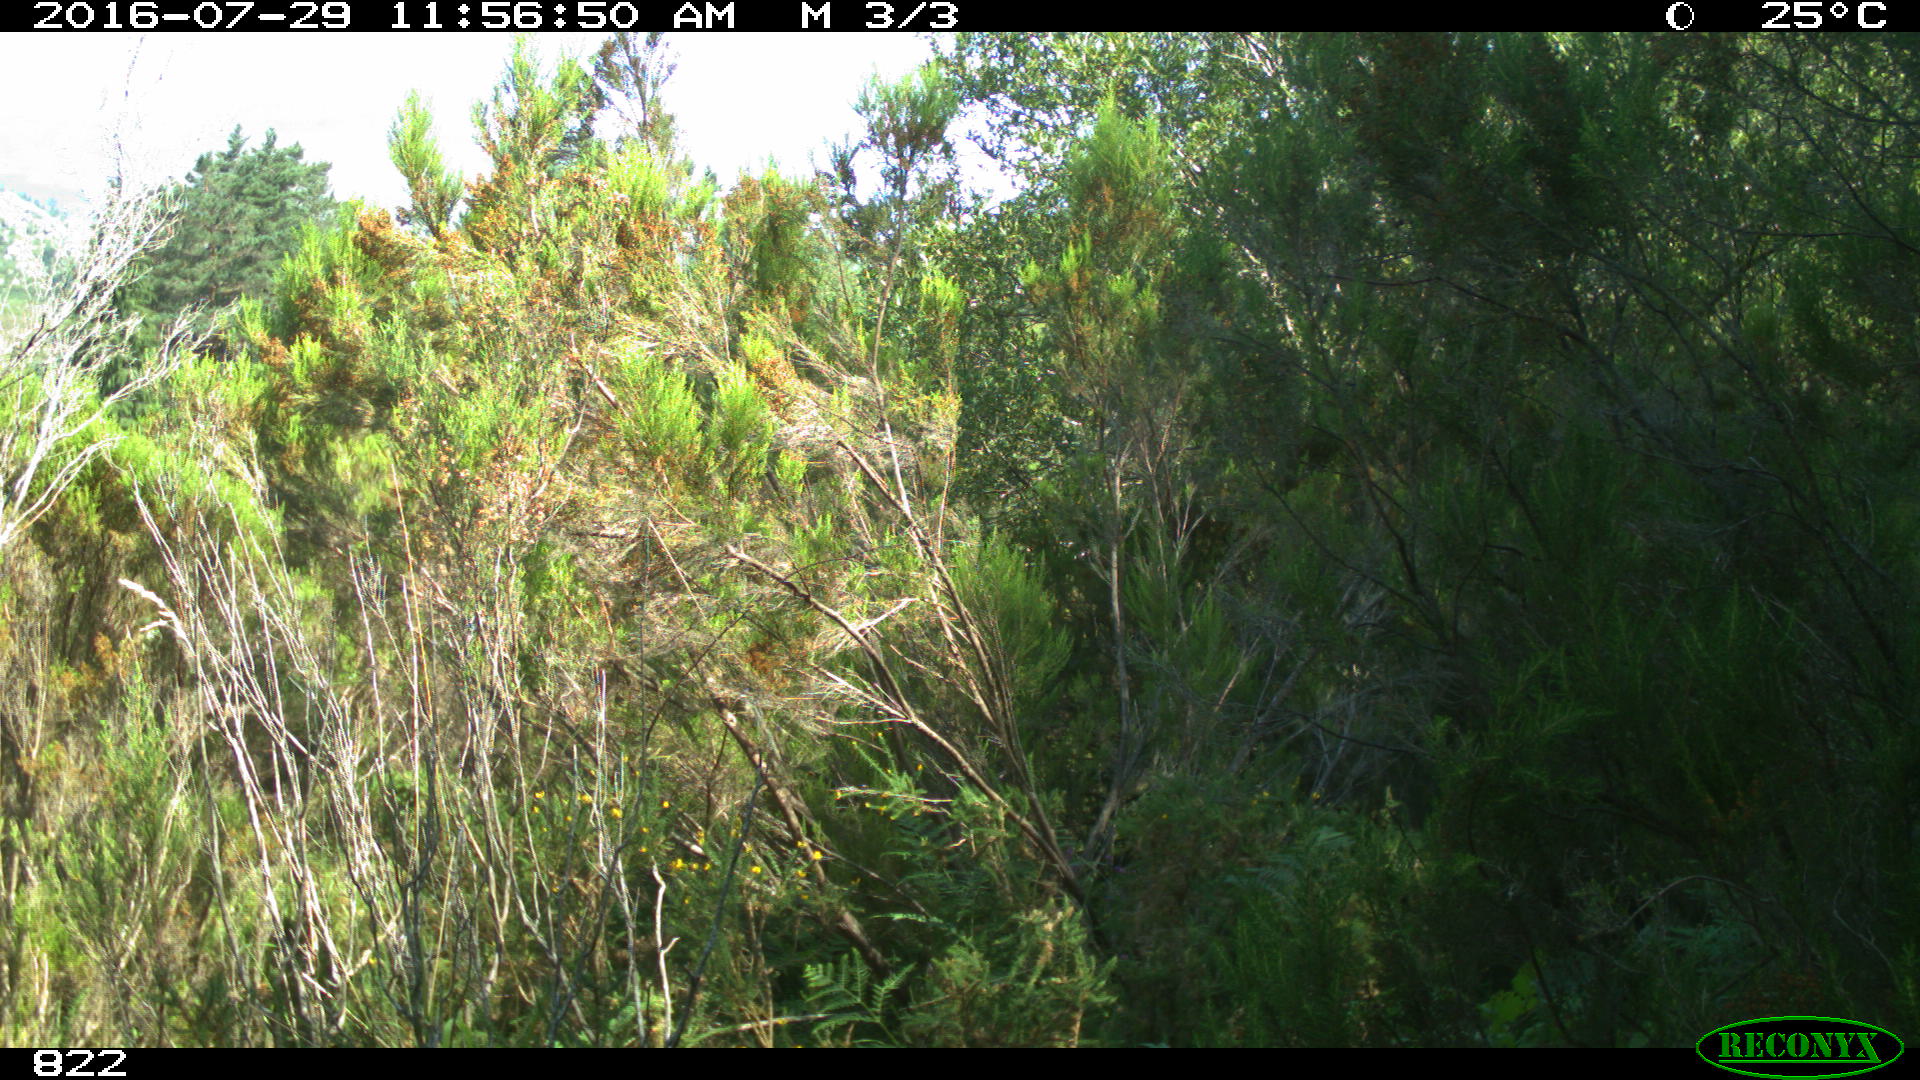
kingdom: Animalia
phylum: Chordata
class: Mammalia
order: Artiodactyla
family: Bovidae
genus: Bos
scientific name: Bos taurus
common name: Domesticated cattle
